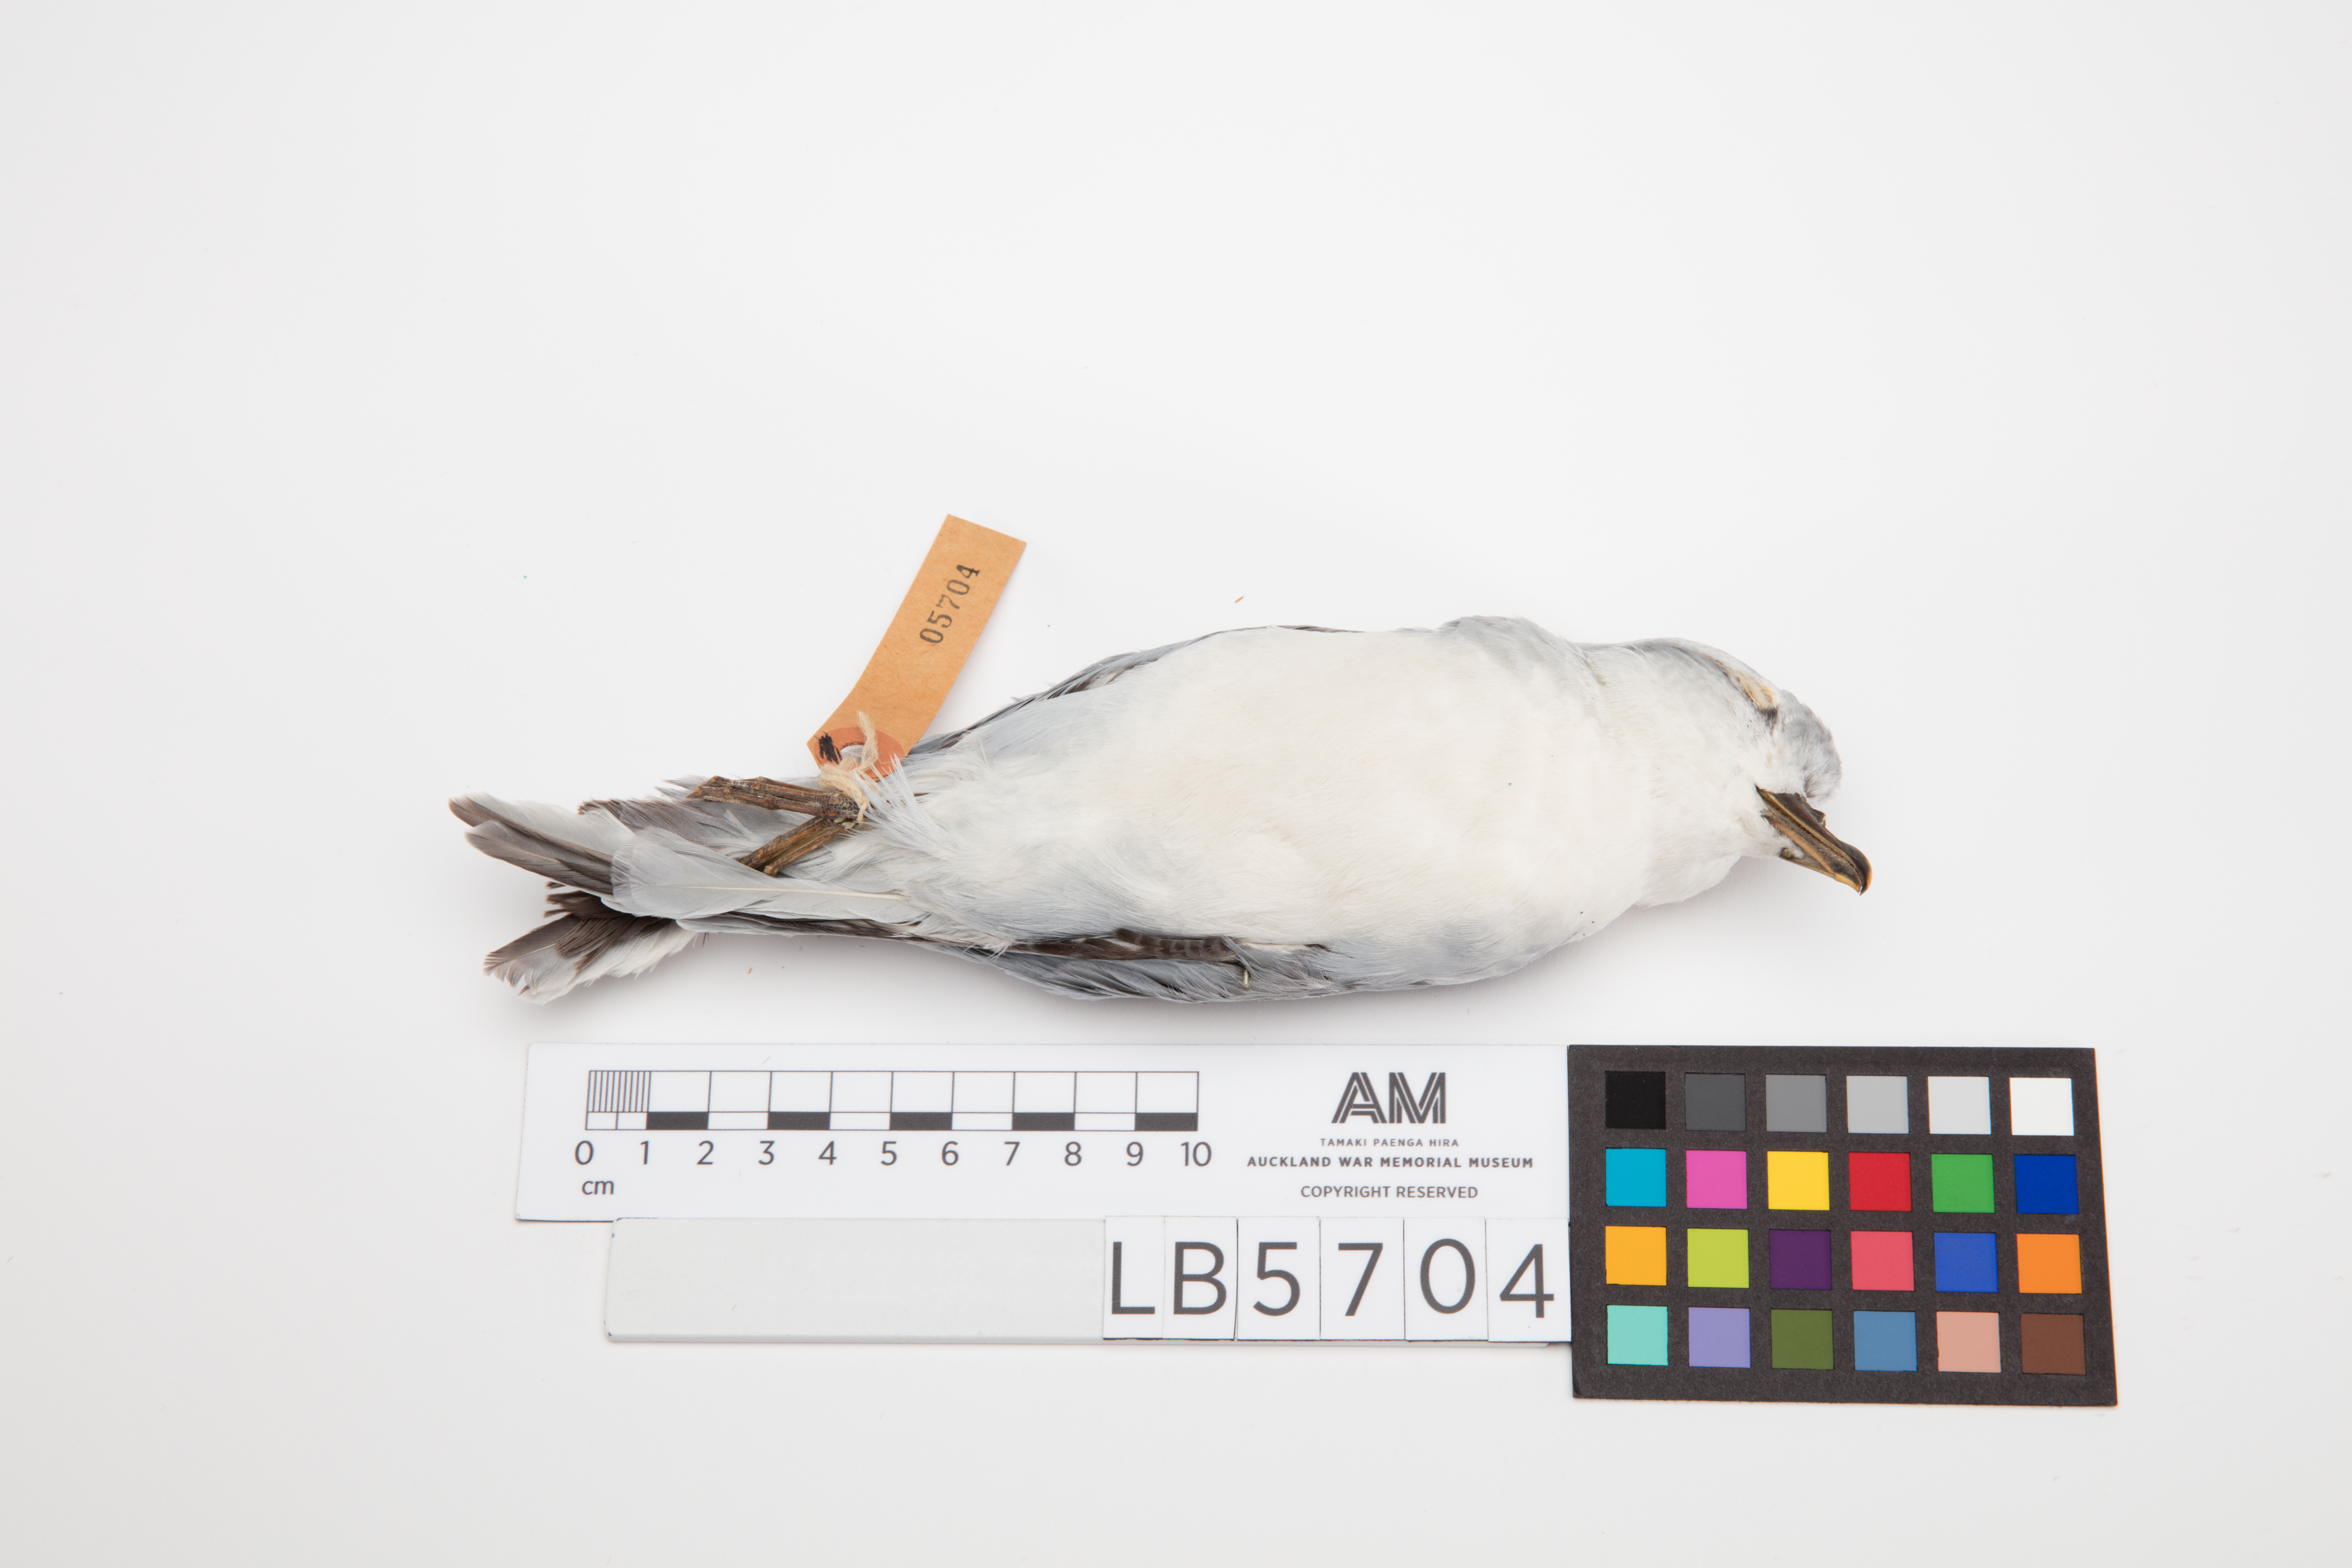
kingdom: Animalia
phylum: Chordata
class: Aves
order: Procellariiformes
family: Procellariidae
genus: Pachyptila
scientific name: Pachyptila turtur
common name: Fairy prion
